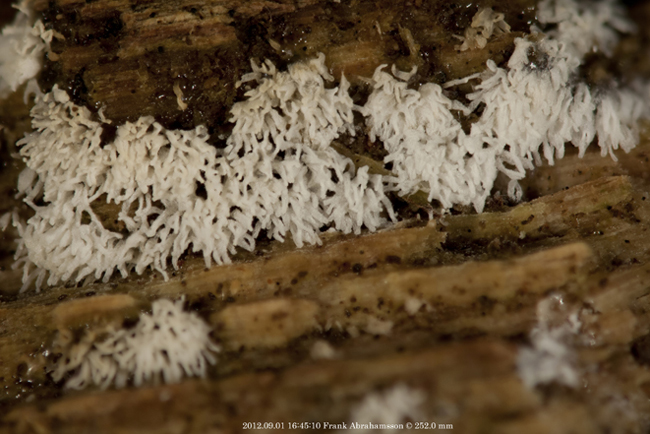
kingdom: Protozoa
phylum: Mycetozoa
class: Protosteliomycetes
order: Ceratiomyxales
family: Ceratiomyxaceae
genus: Ceratiomyxa
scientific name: Ceratiomyxa fruticulosa
